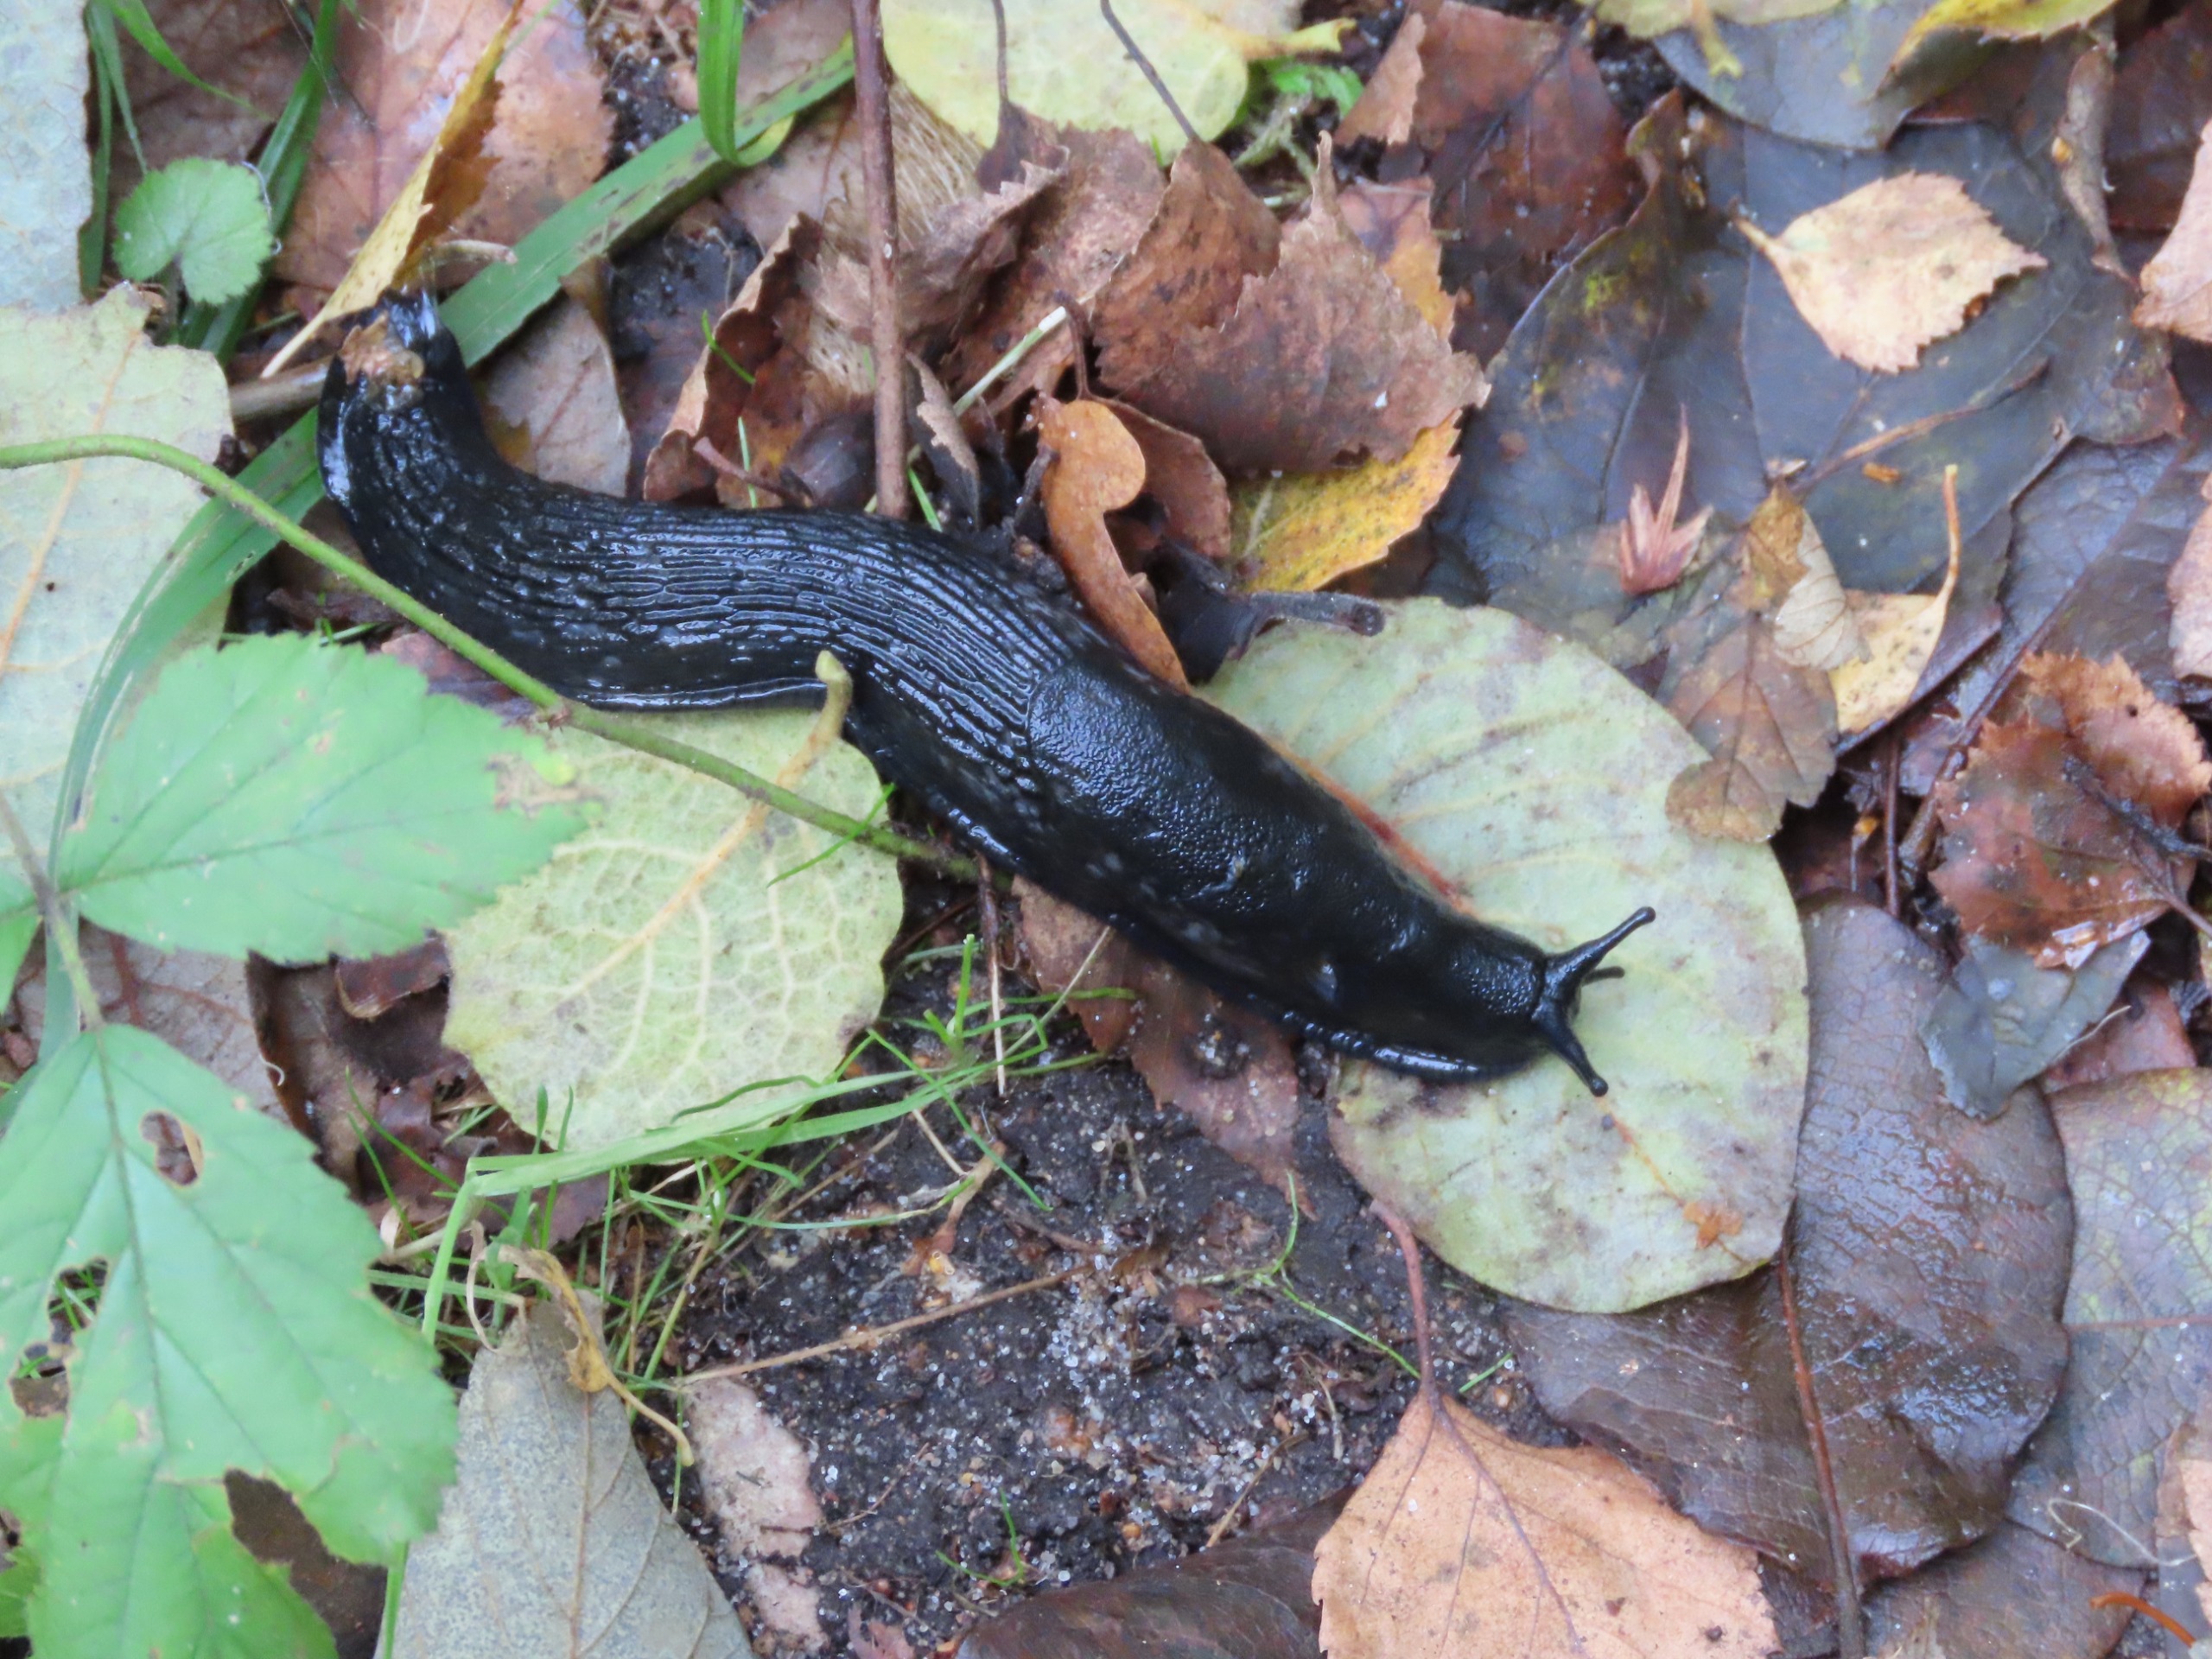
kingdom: Animalia
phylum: Mollusca
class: Gastropoda
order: Stylommatophora
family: Arionidae
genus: Arion
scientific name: Arion ater
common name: Sort skovsnegl
